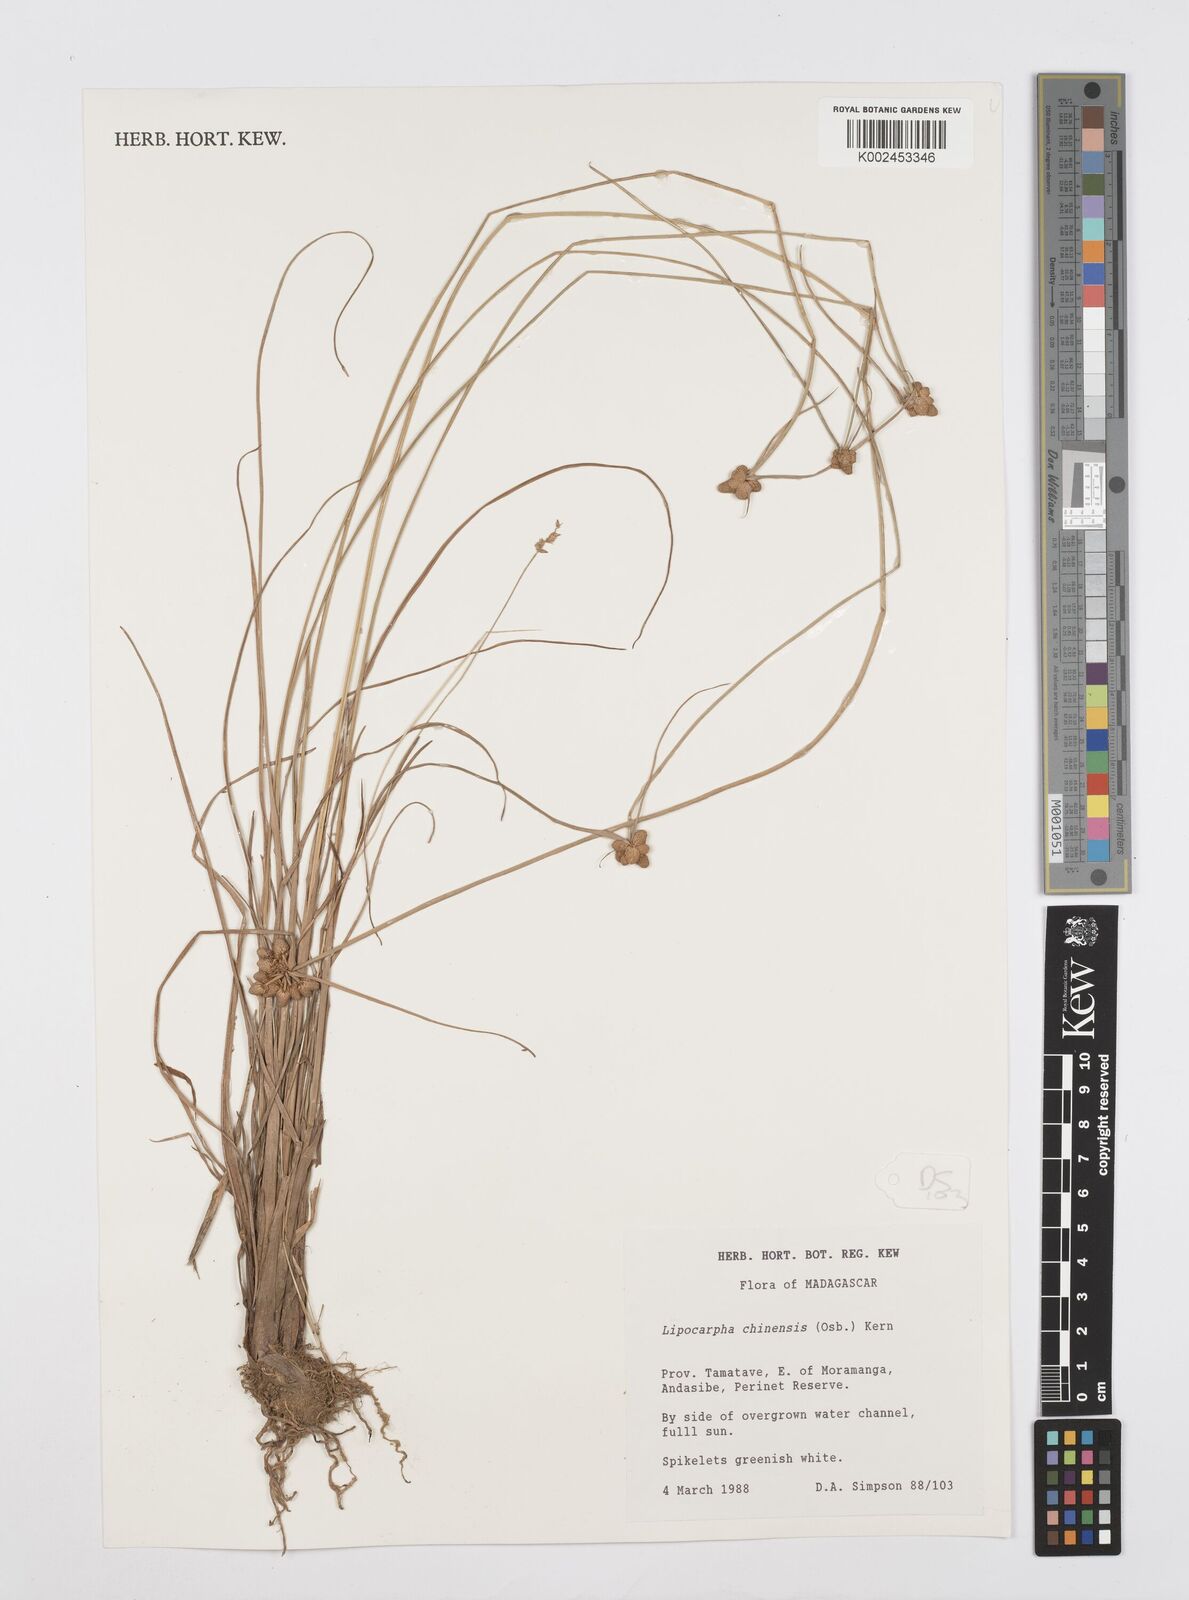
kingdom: Plantae
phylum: Tracheophyta
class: Liliopsida
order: Poales
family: Cyperaceae
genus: Cyperus
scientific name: Cyperus
